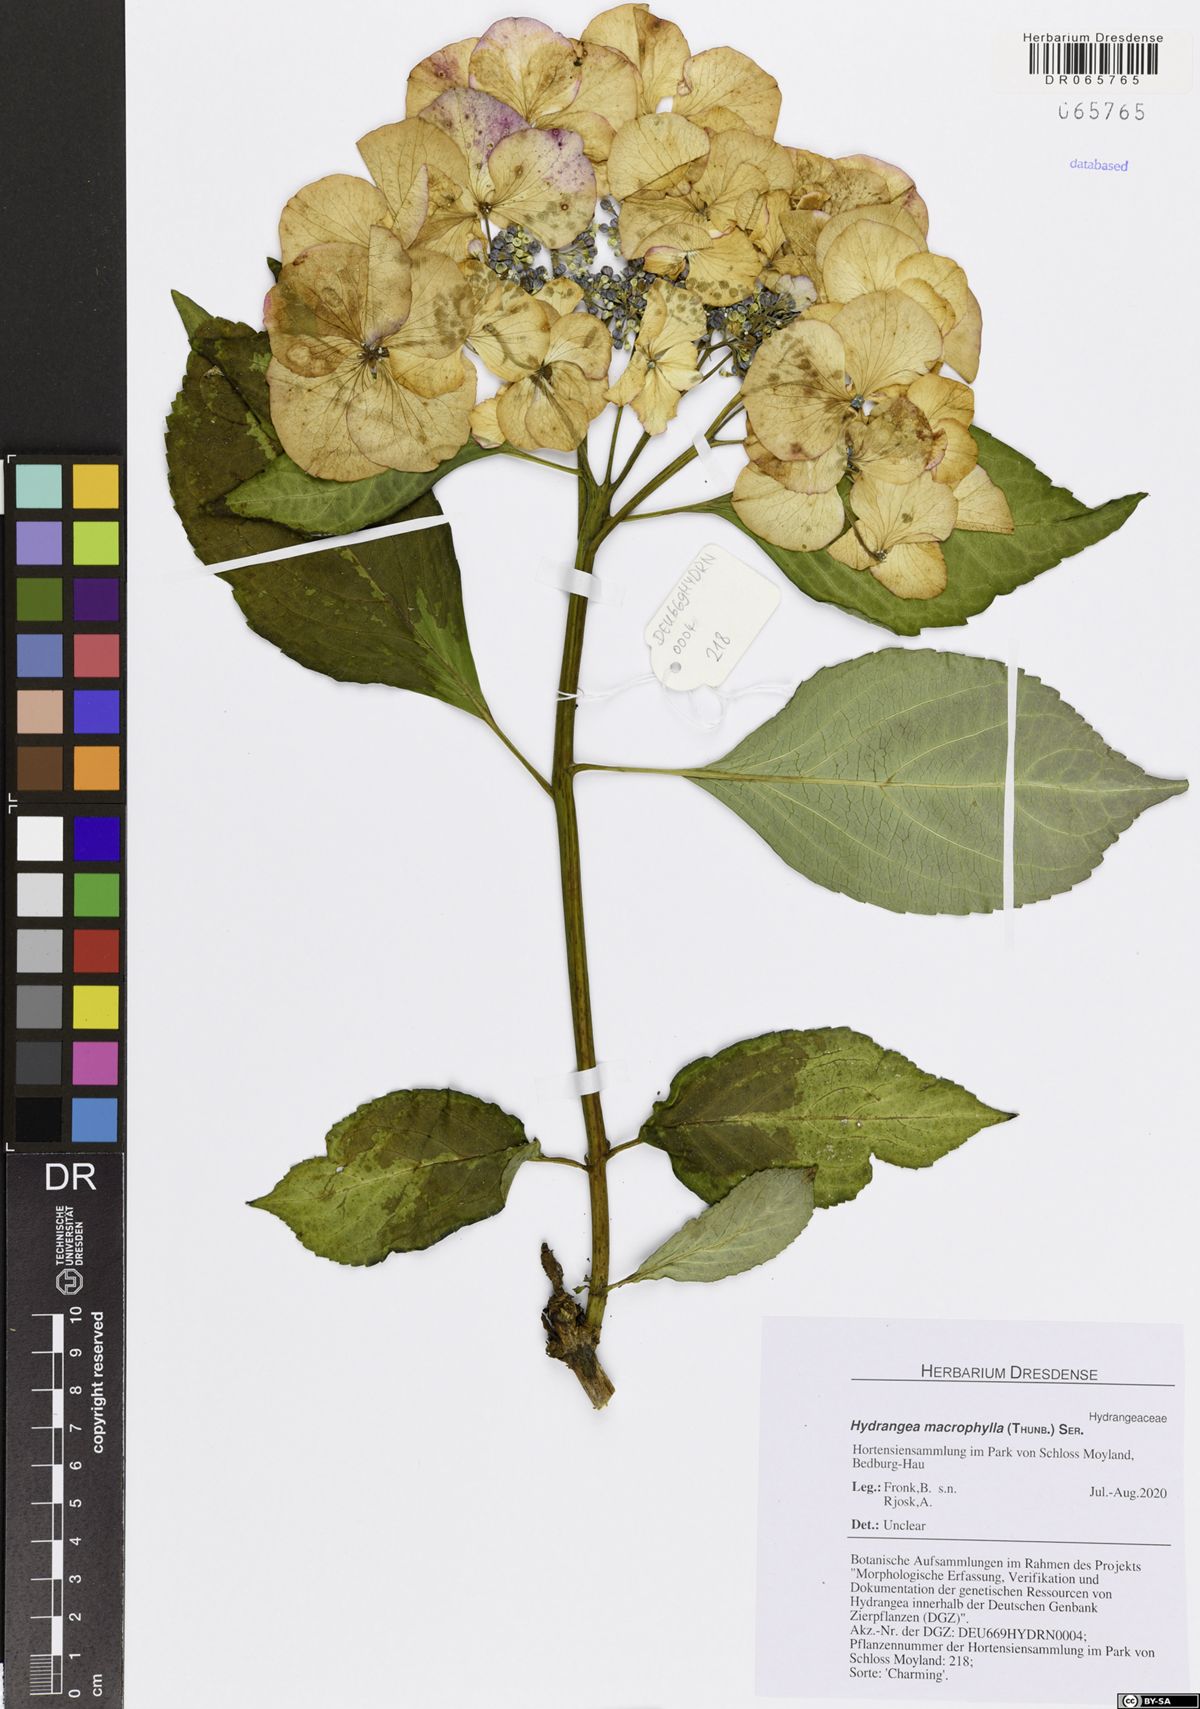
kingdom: Plantae
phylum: Tracheophyta
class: Magnoliopsida
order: Cornales
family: Hydrangeaceae
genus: Hydrangea
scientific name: Hydrangea macrophylla
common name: Hydrangea
